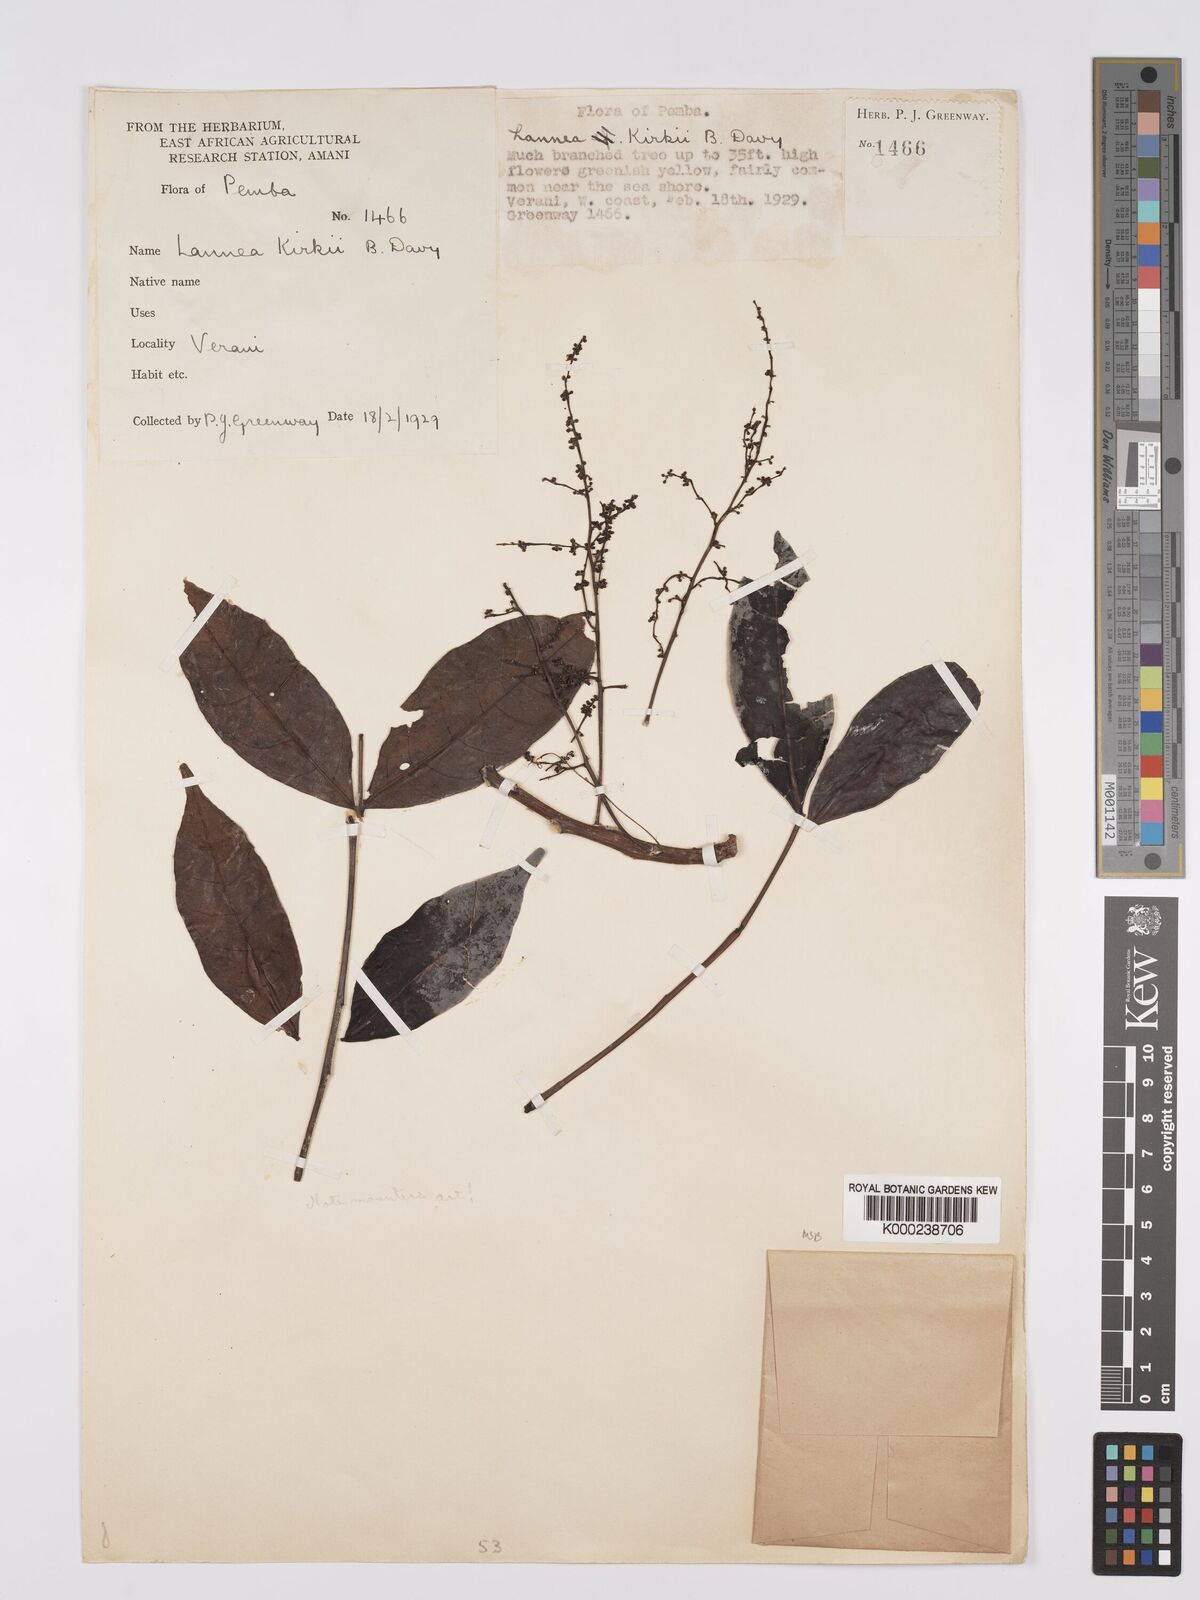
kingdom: Plantae
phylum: Tracheophyta
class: Magnoliopsida
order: Sapindales
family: Anacardiaceae
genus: Lannea
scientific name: Lannea schweinfurthii
